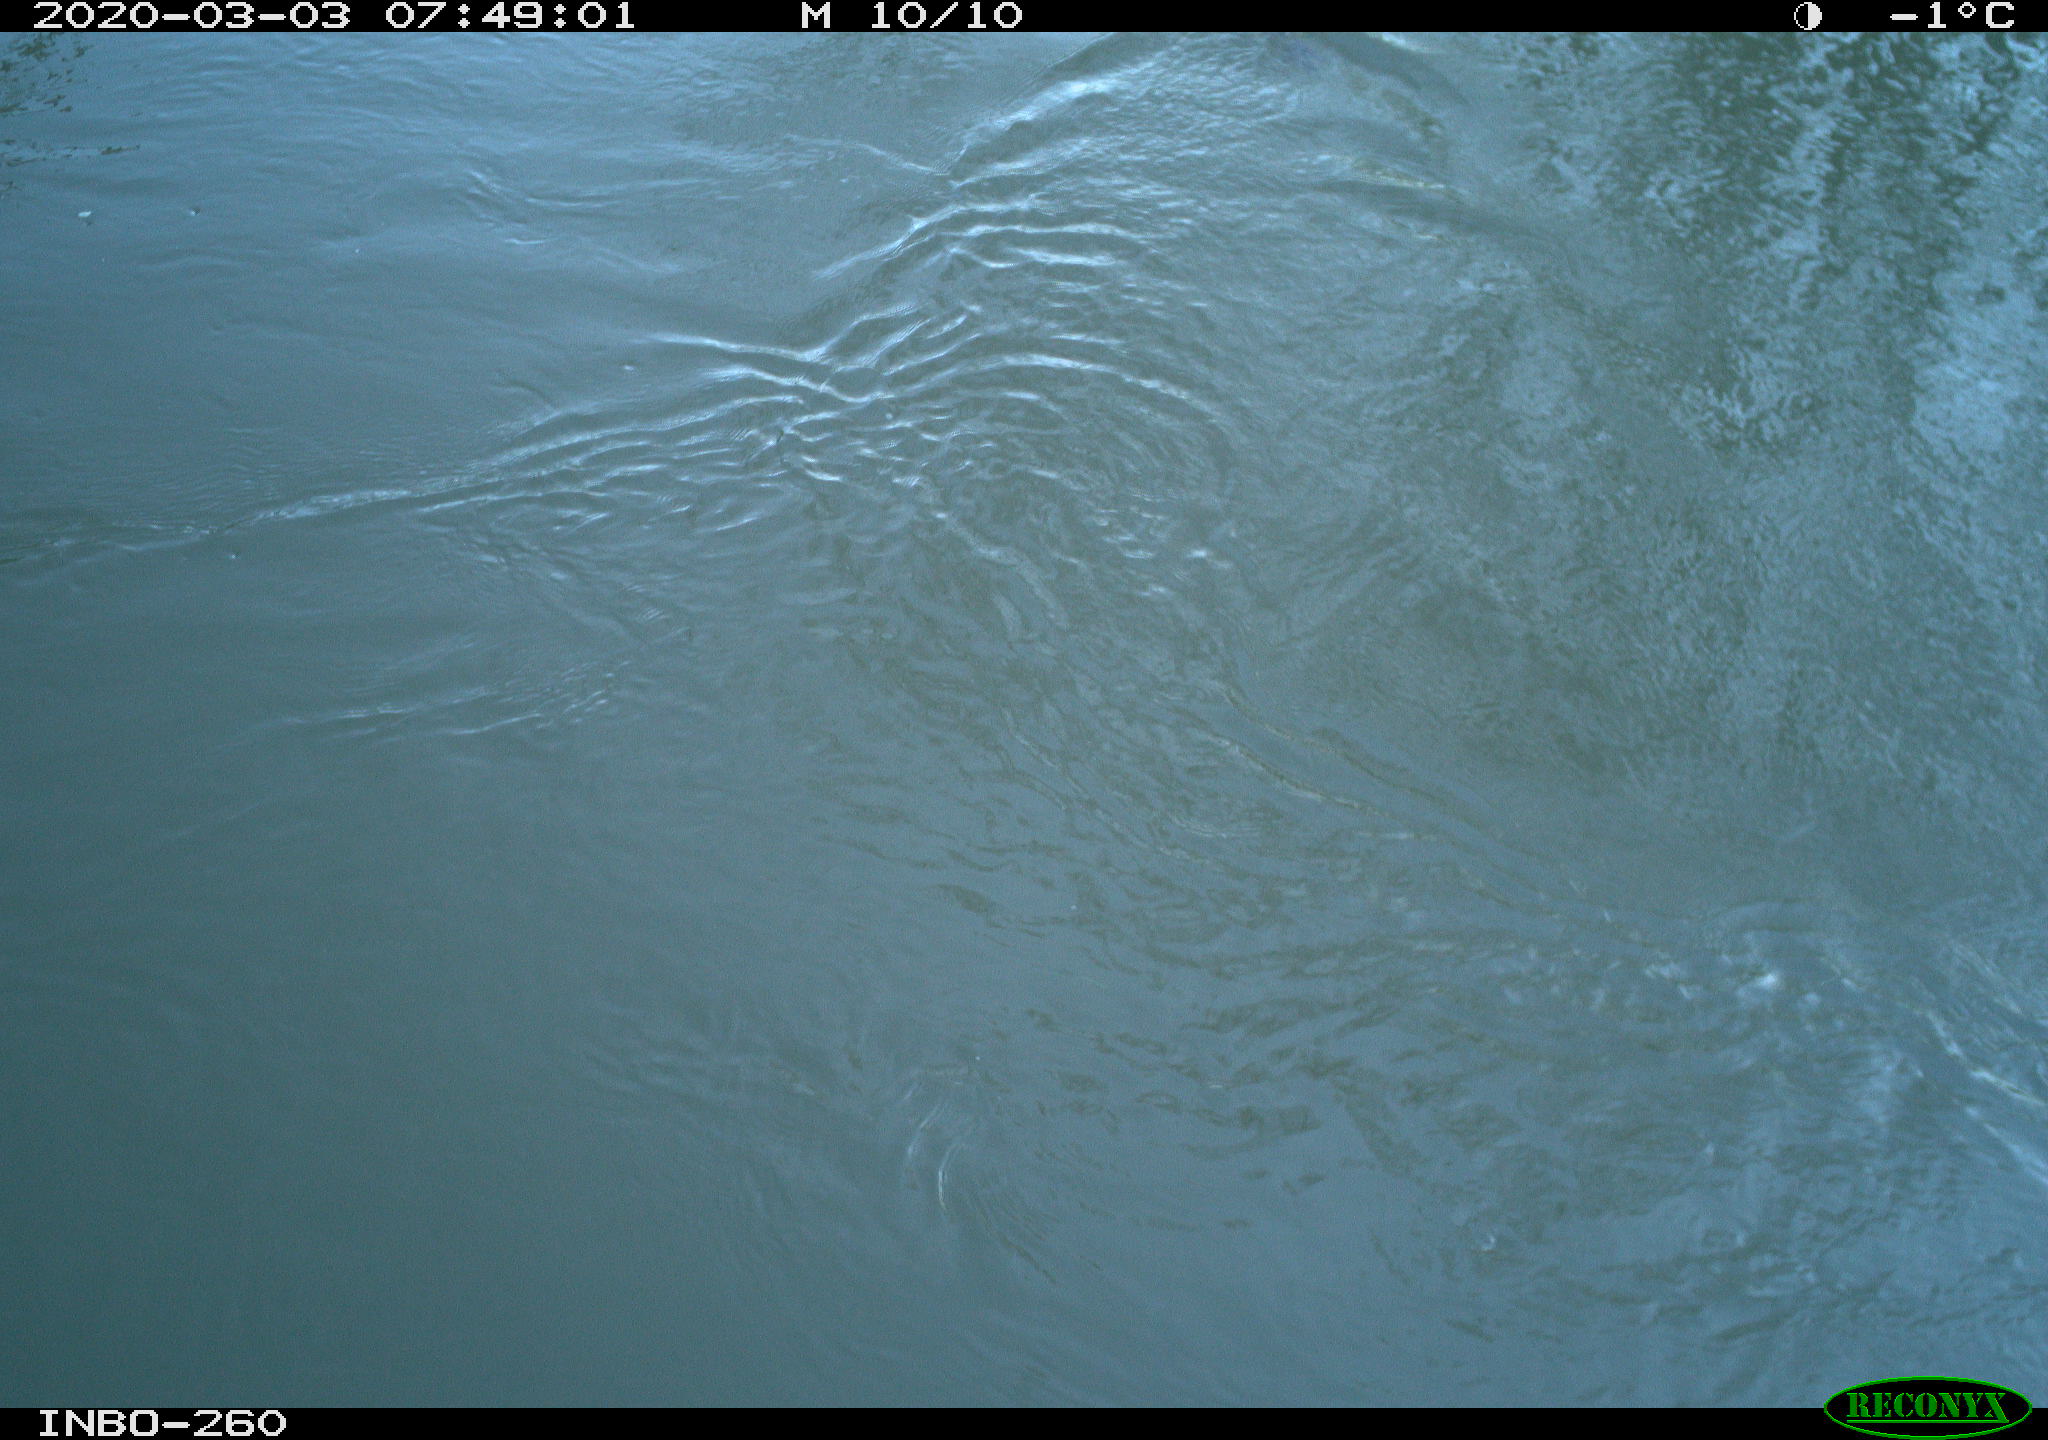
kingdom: Animalia
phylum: Chordata
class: Aves
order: Gruiformes
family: Rallidae
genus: Fulica
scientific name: Fulica atra
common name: Eurasian coot
